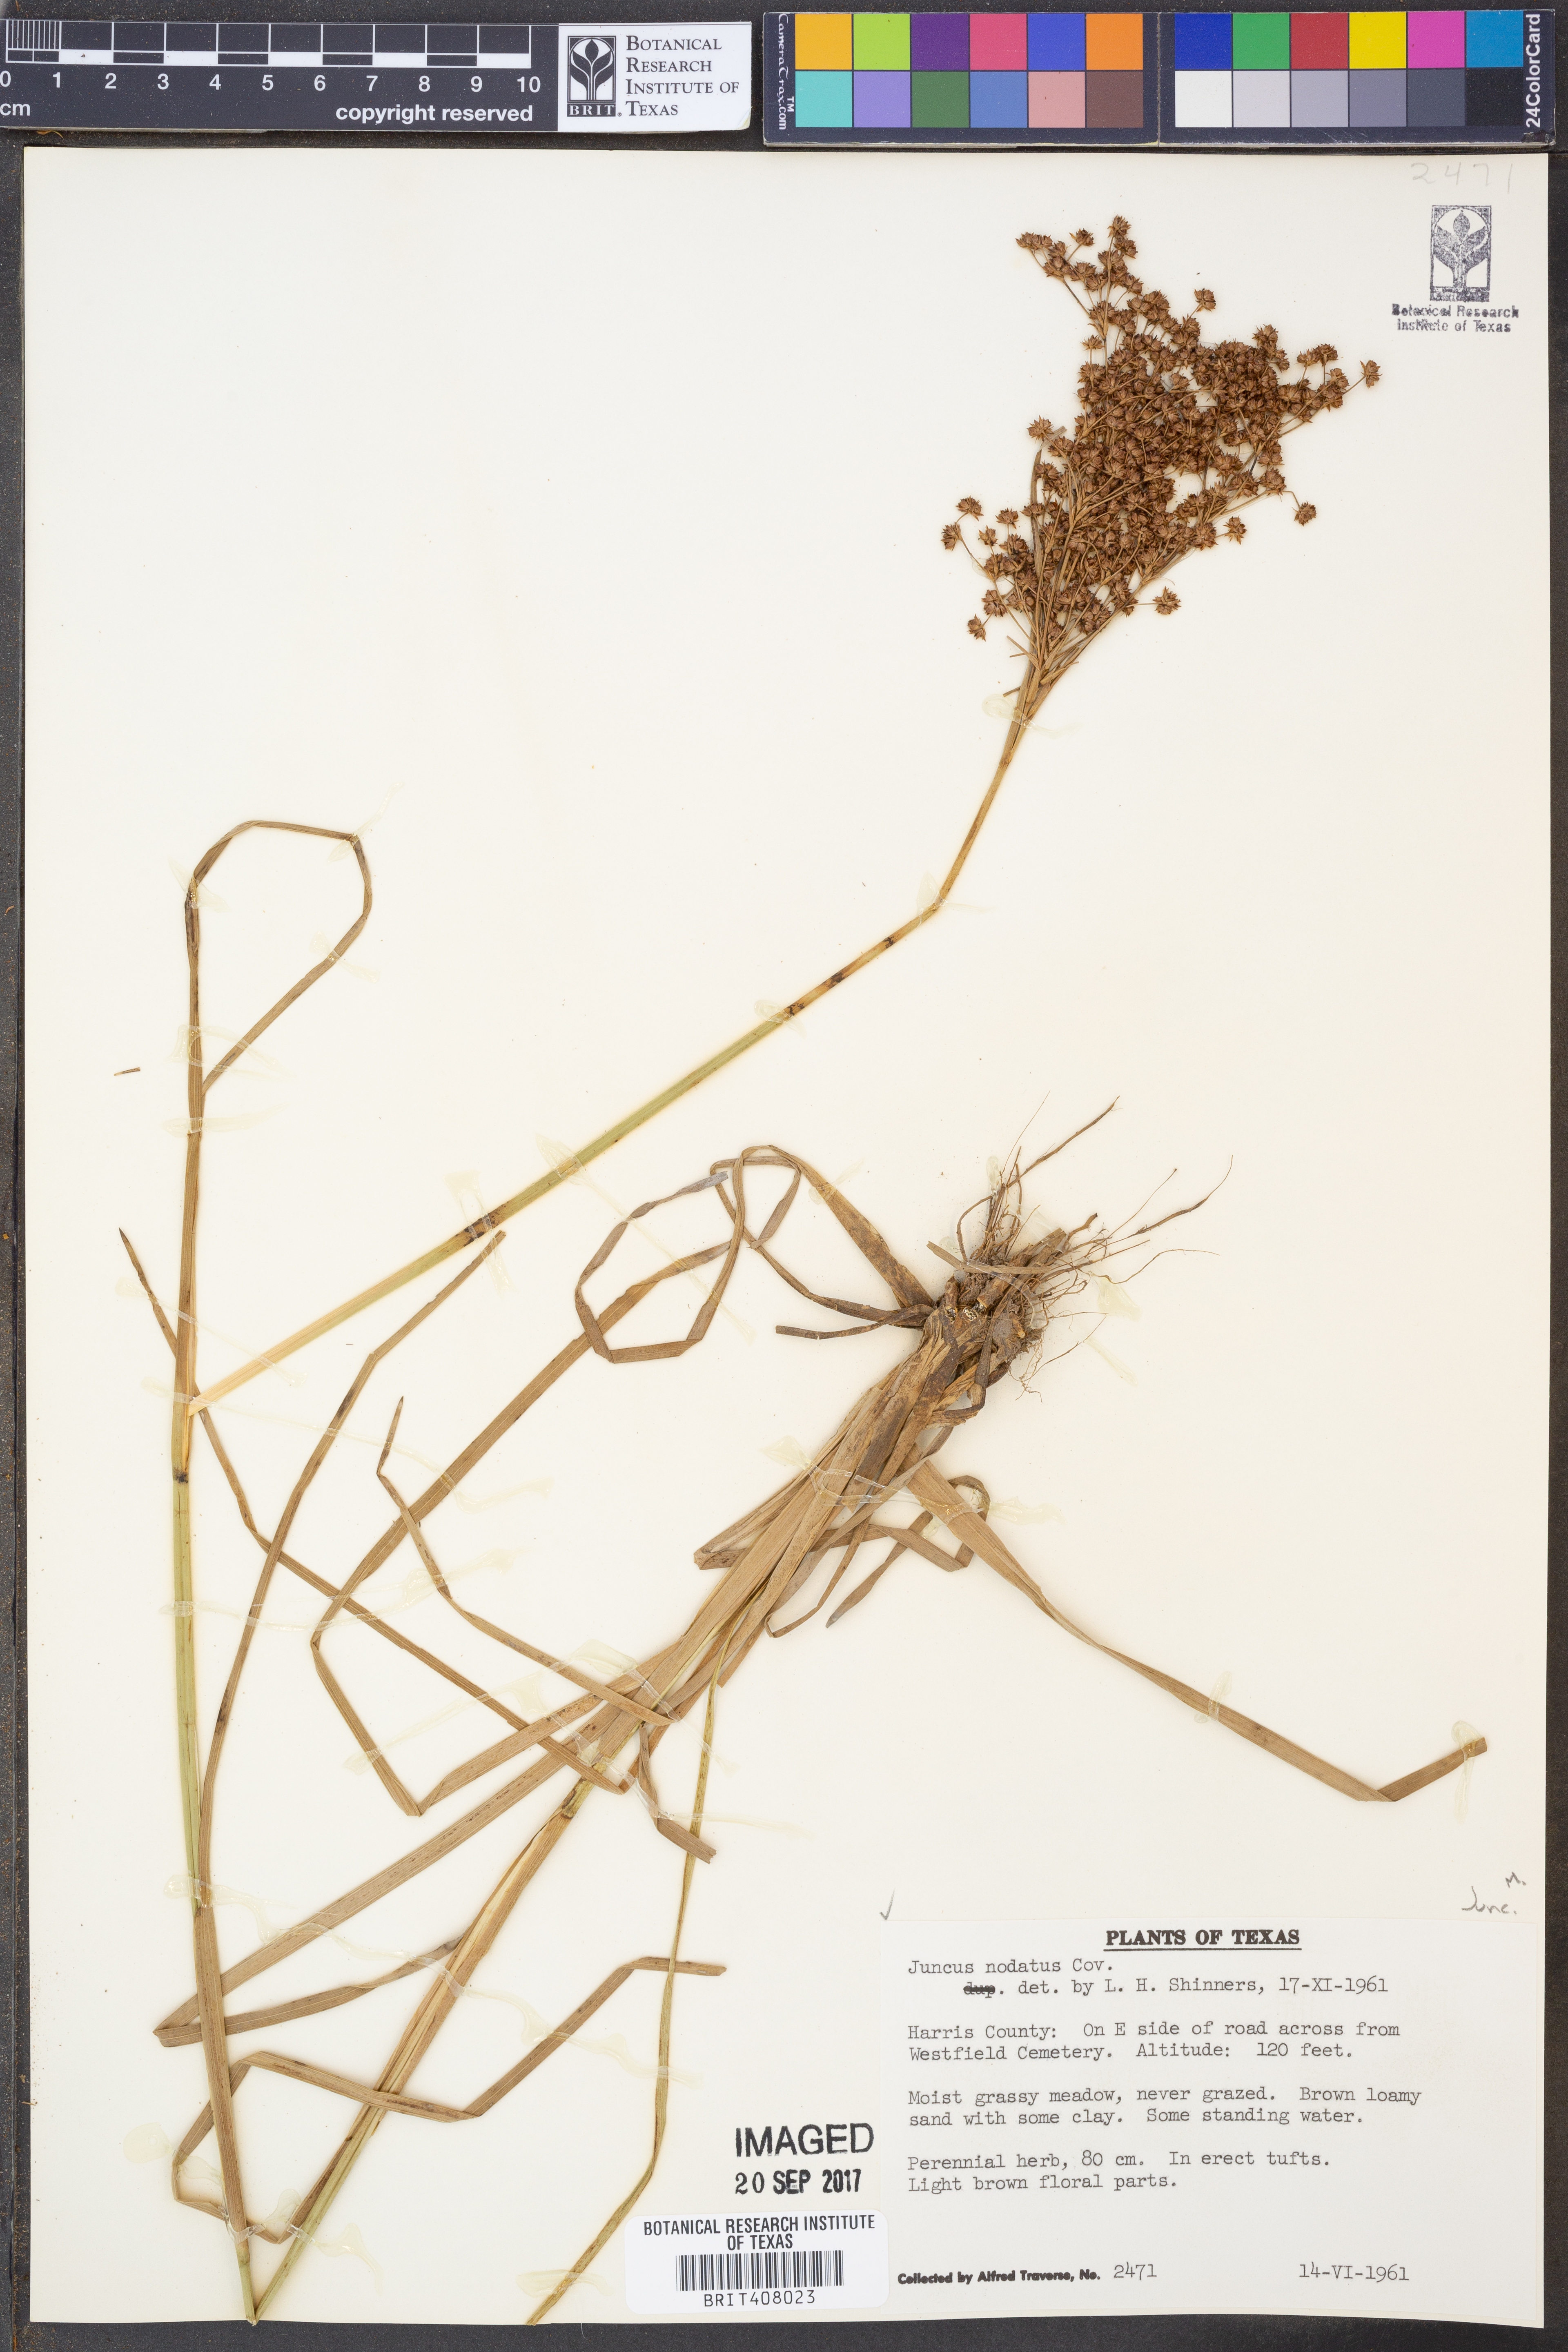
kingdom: Plantae
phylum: Tracheophyta
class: Liliopsida
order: Poales
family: Juncaceae
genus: Juncus
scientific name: Juncus nodatus
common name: Stout rush
